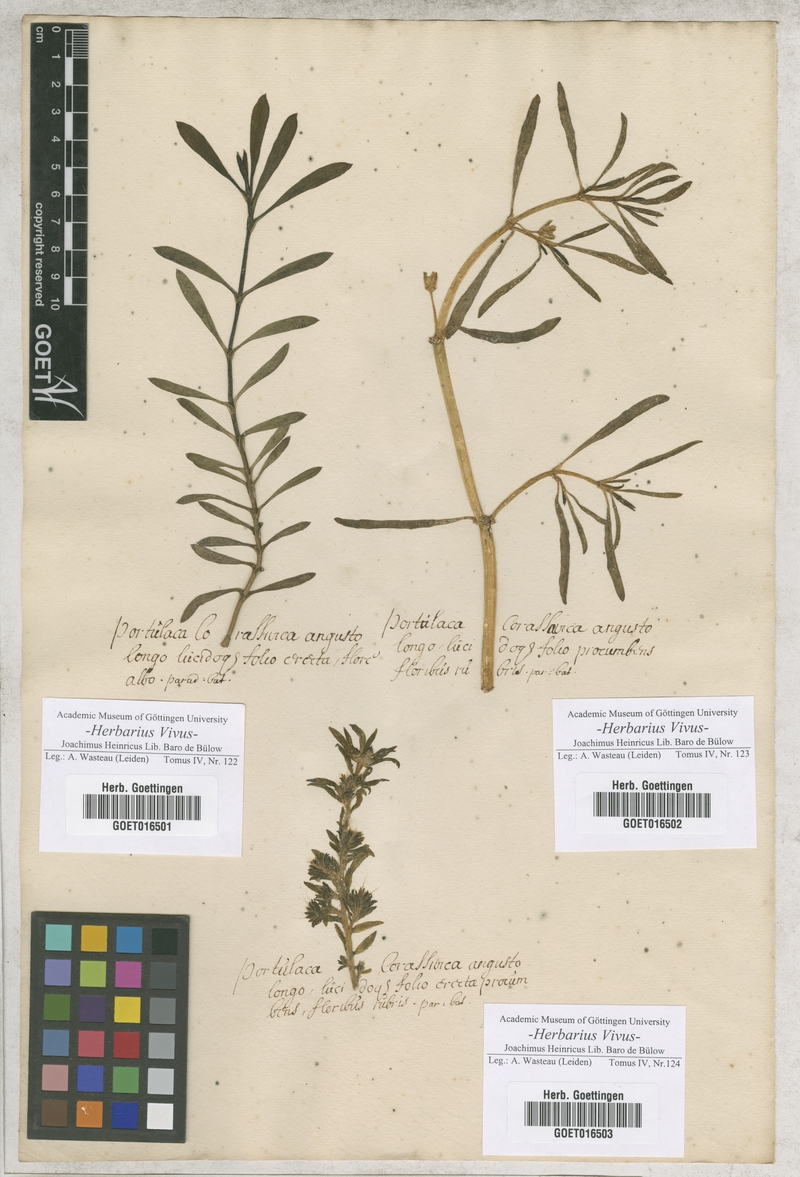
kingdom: Plantae
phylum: Tracheophyta
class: Magnoliopsida
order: Caryophyllales
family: Portulacaceae
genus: Portulaca
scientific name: Portulaca
